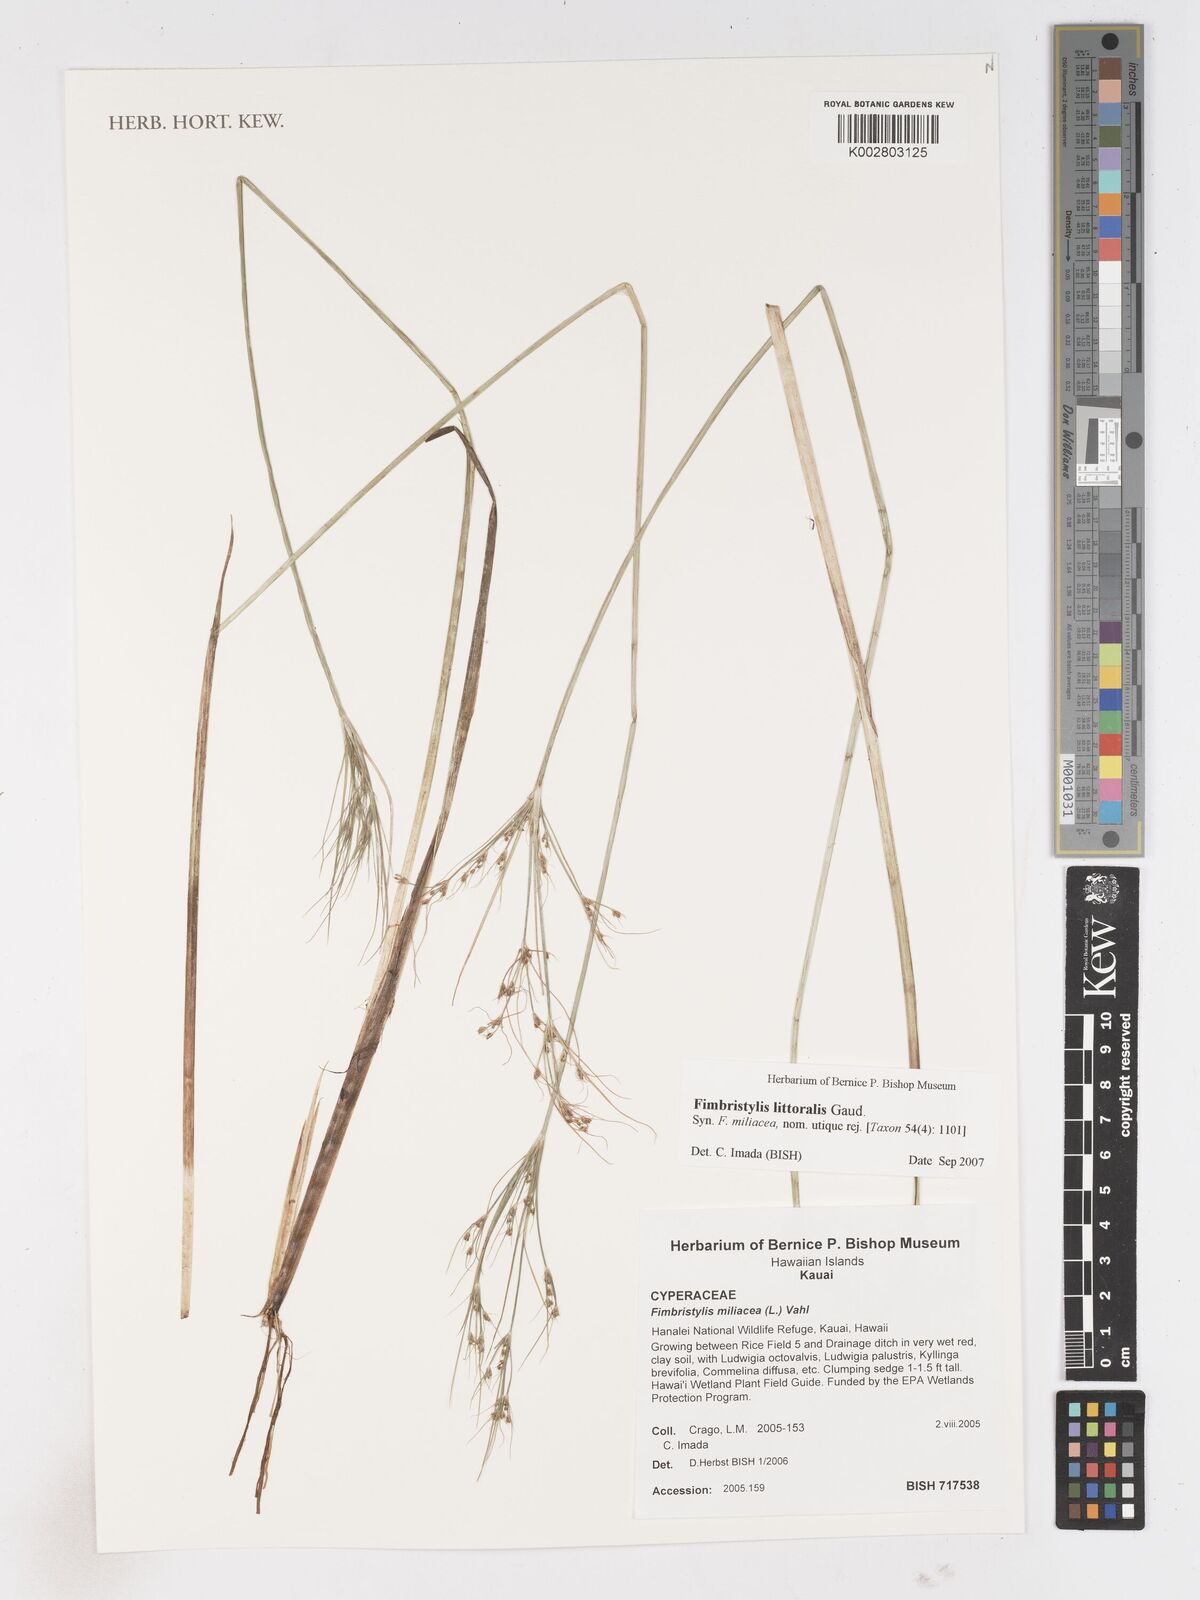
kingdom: Plantae
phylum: Tracheophyta
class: Liliopsida
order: Poales
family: Cyperaceae
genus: Fimbristylis
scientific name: Fimbristylis littoralis
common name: Fimbry
